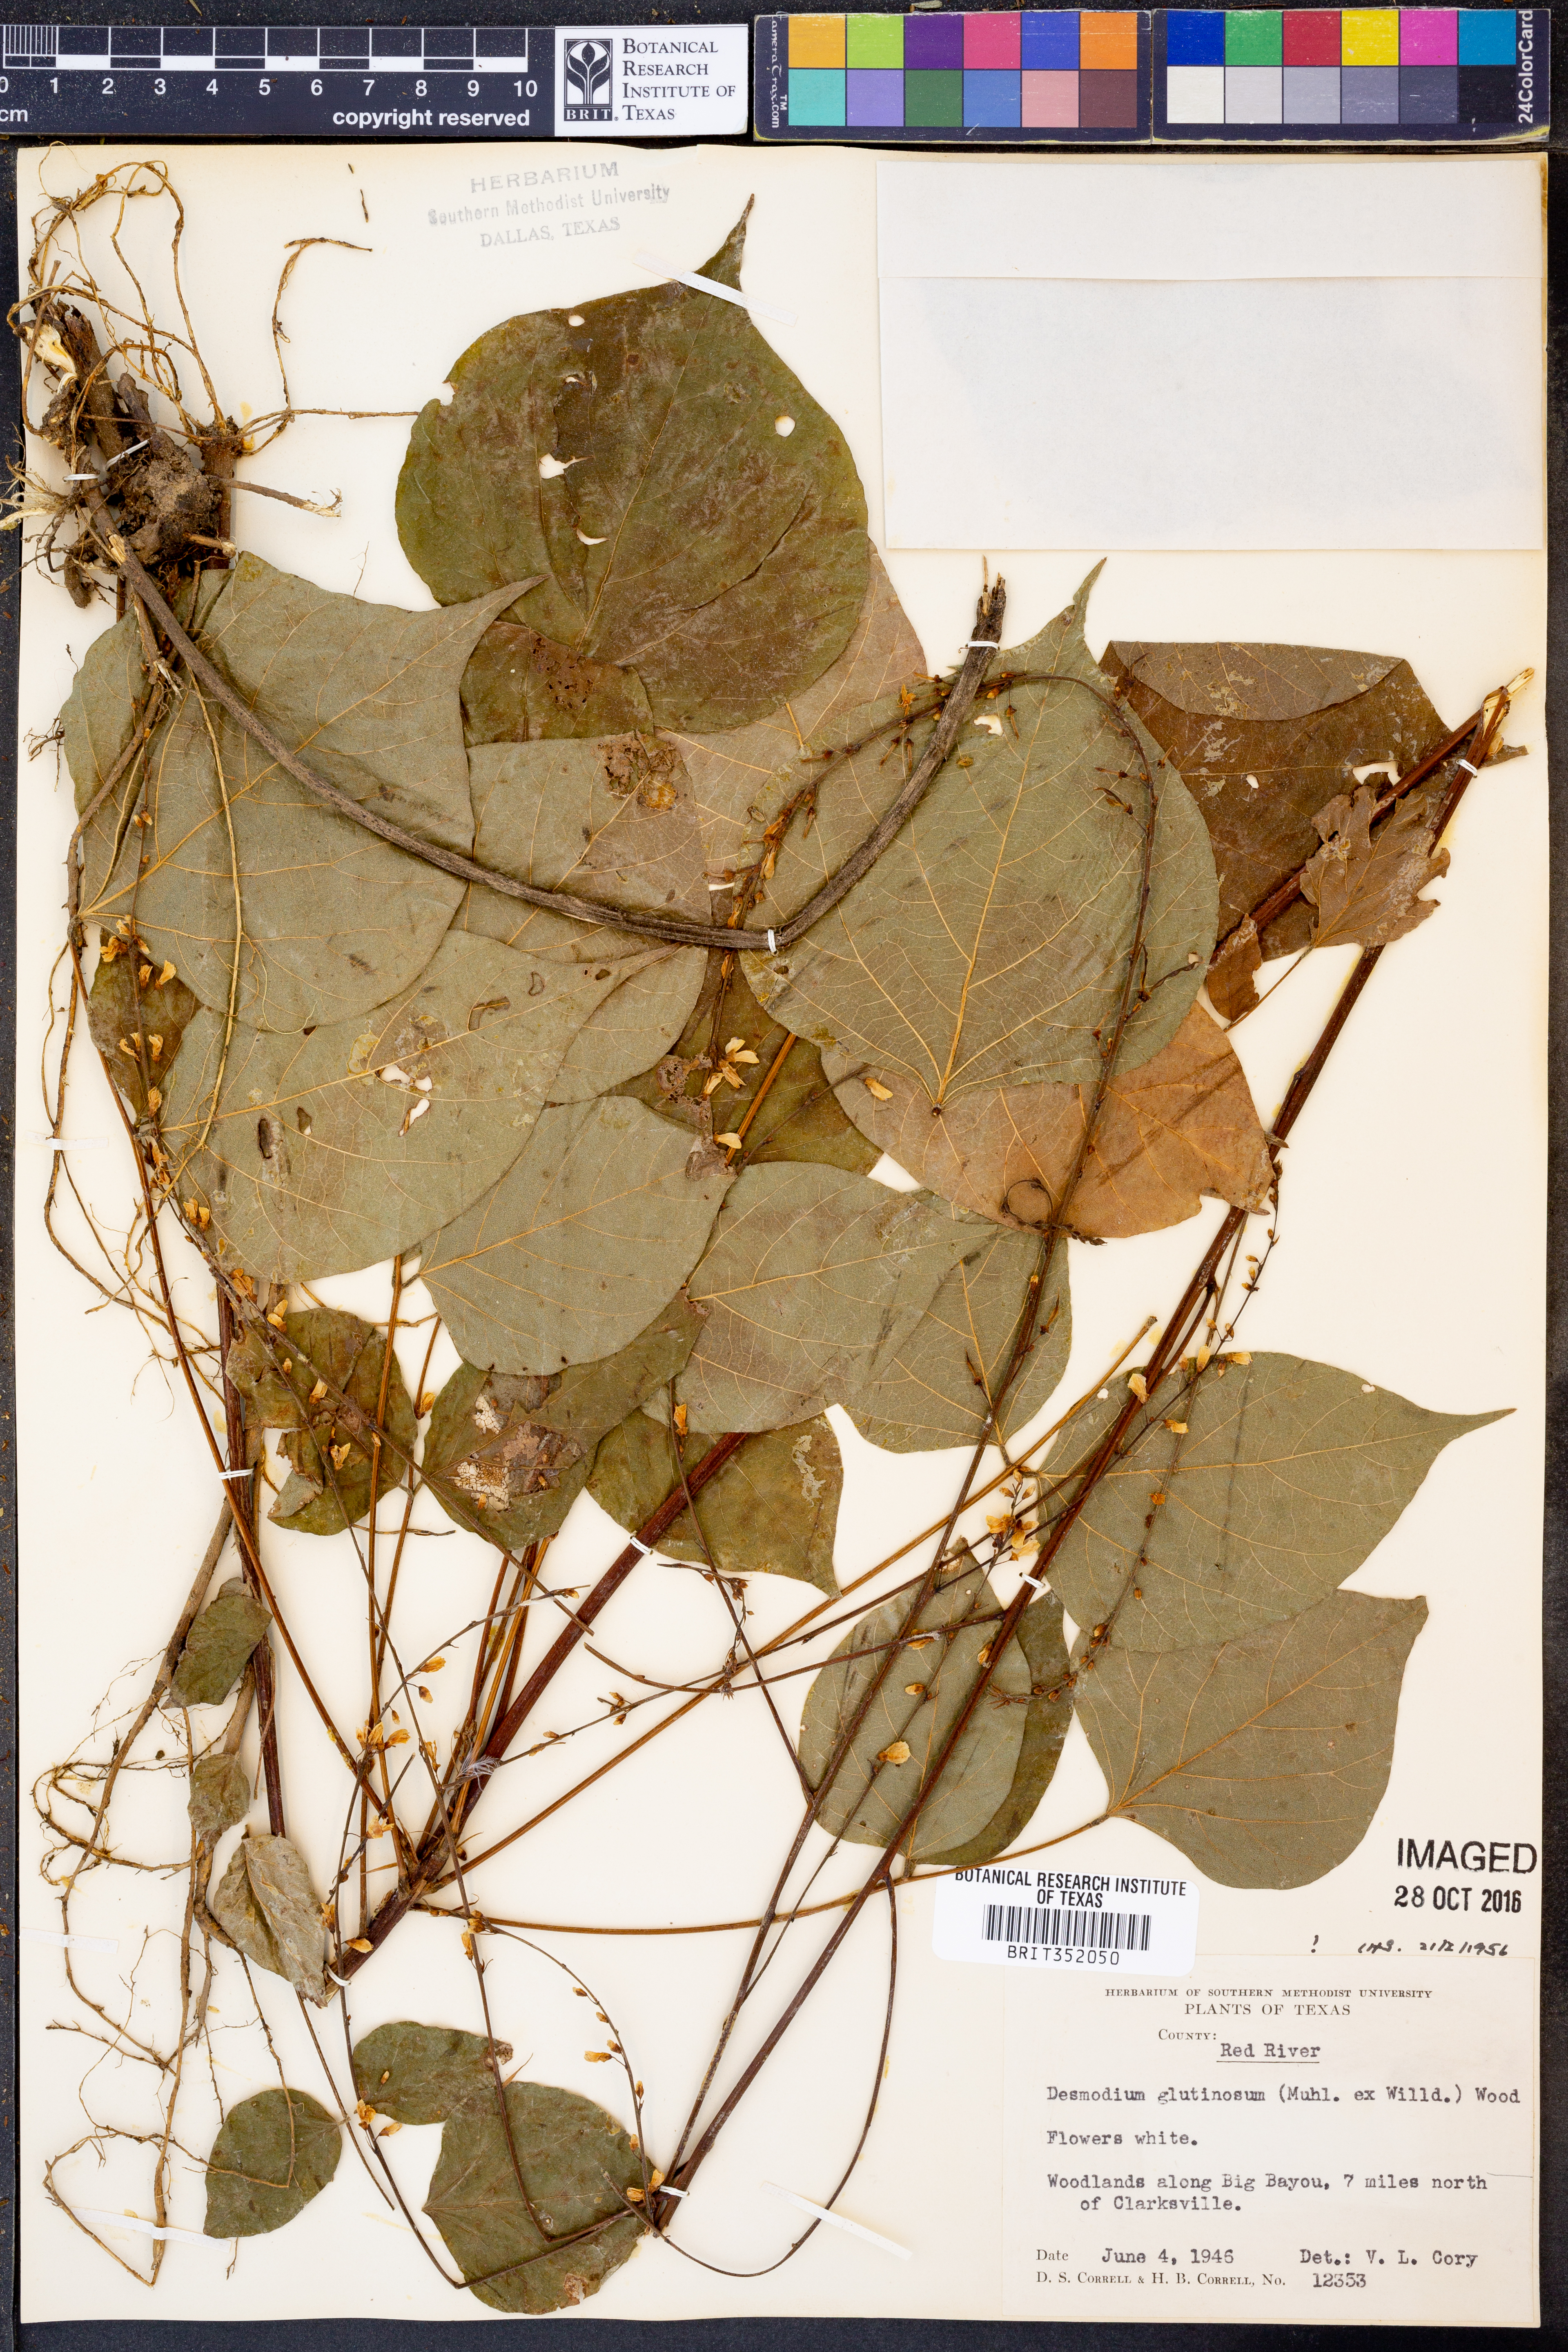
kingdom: Plantae
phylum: Tracheophyta
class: Magnoliopsida
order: Fabales
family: Fabaceae
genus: Hylodesmum
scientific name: Hylodesmum glutinosum
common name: Clustered-leaved tick-trefoil
